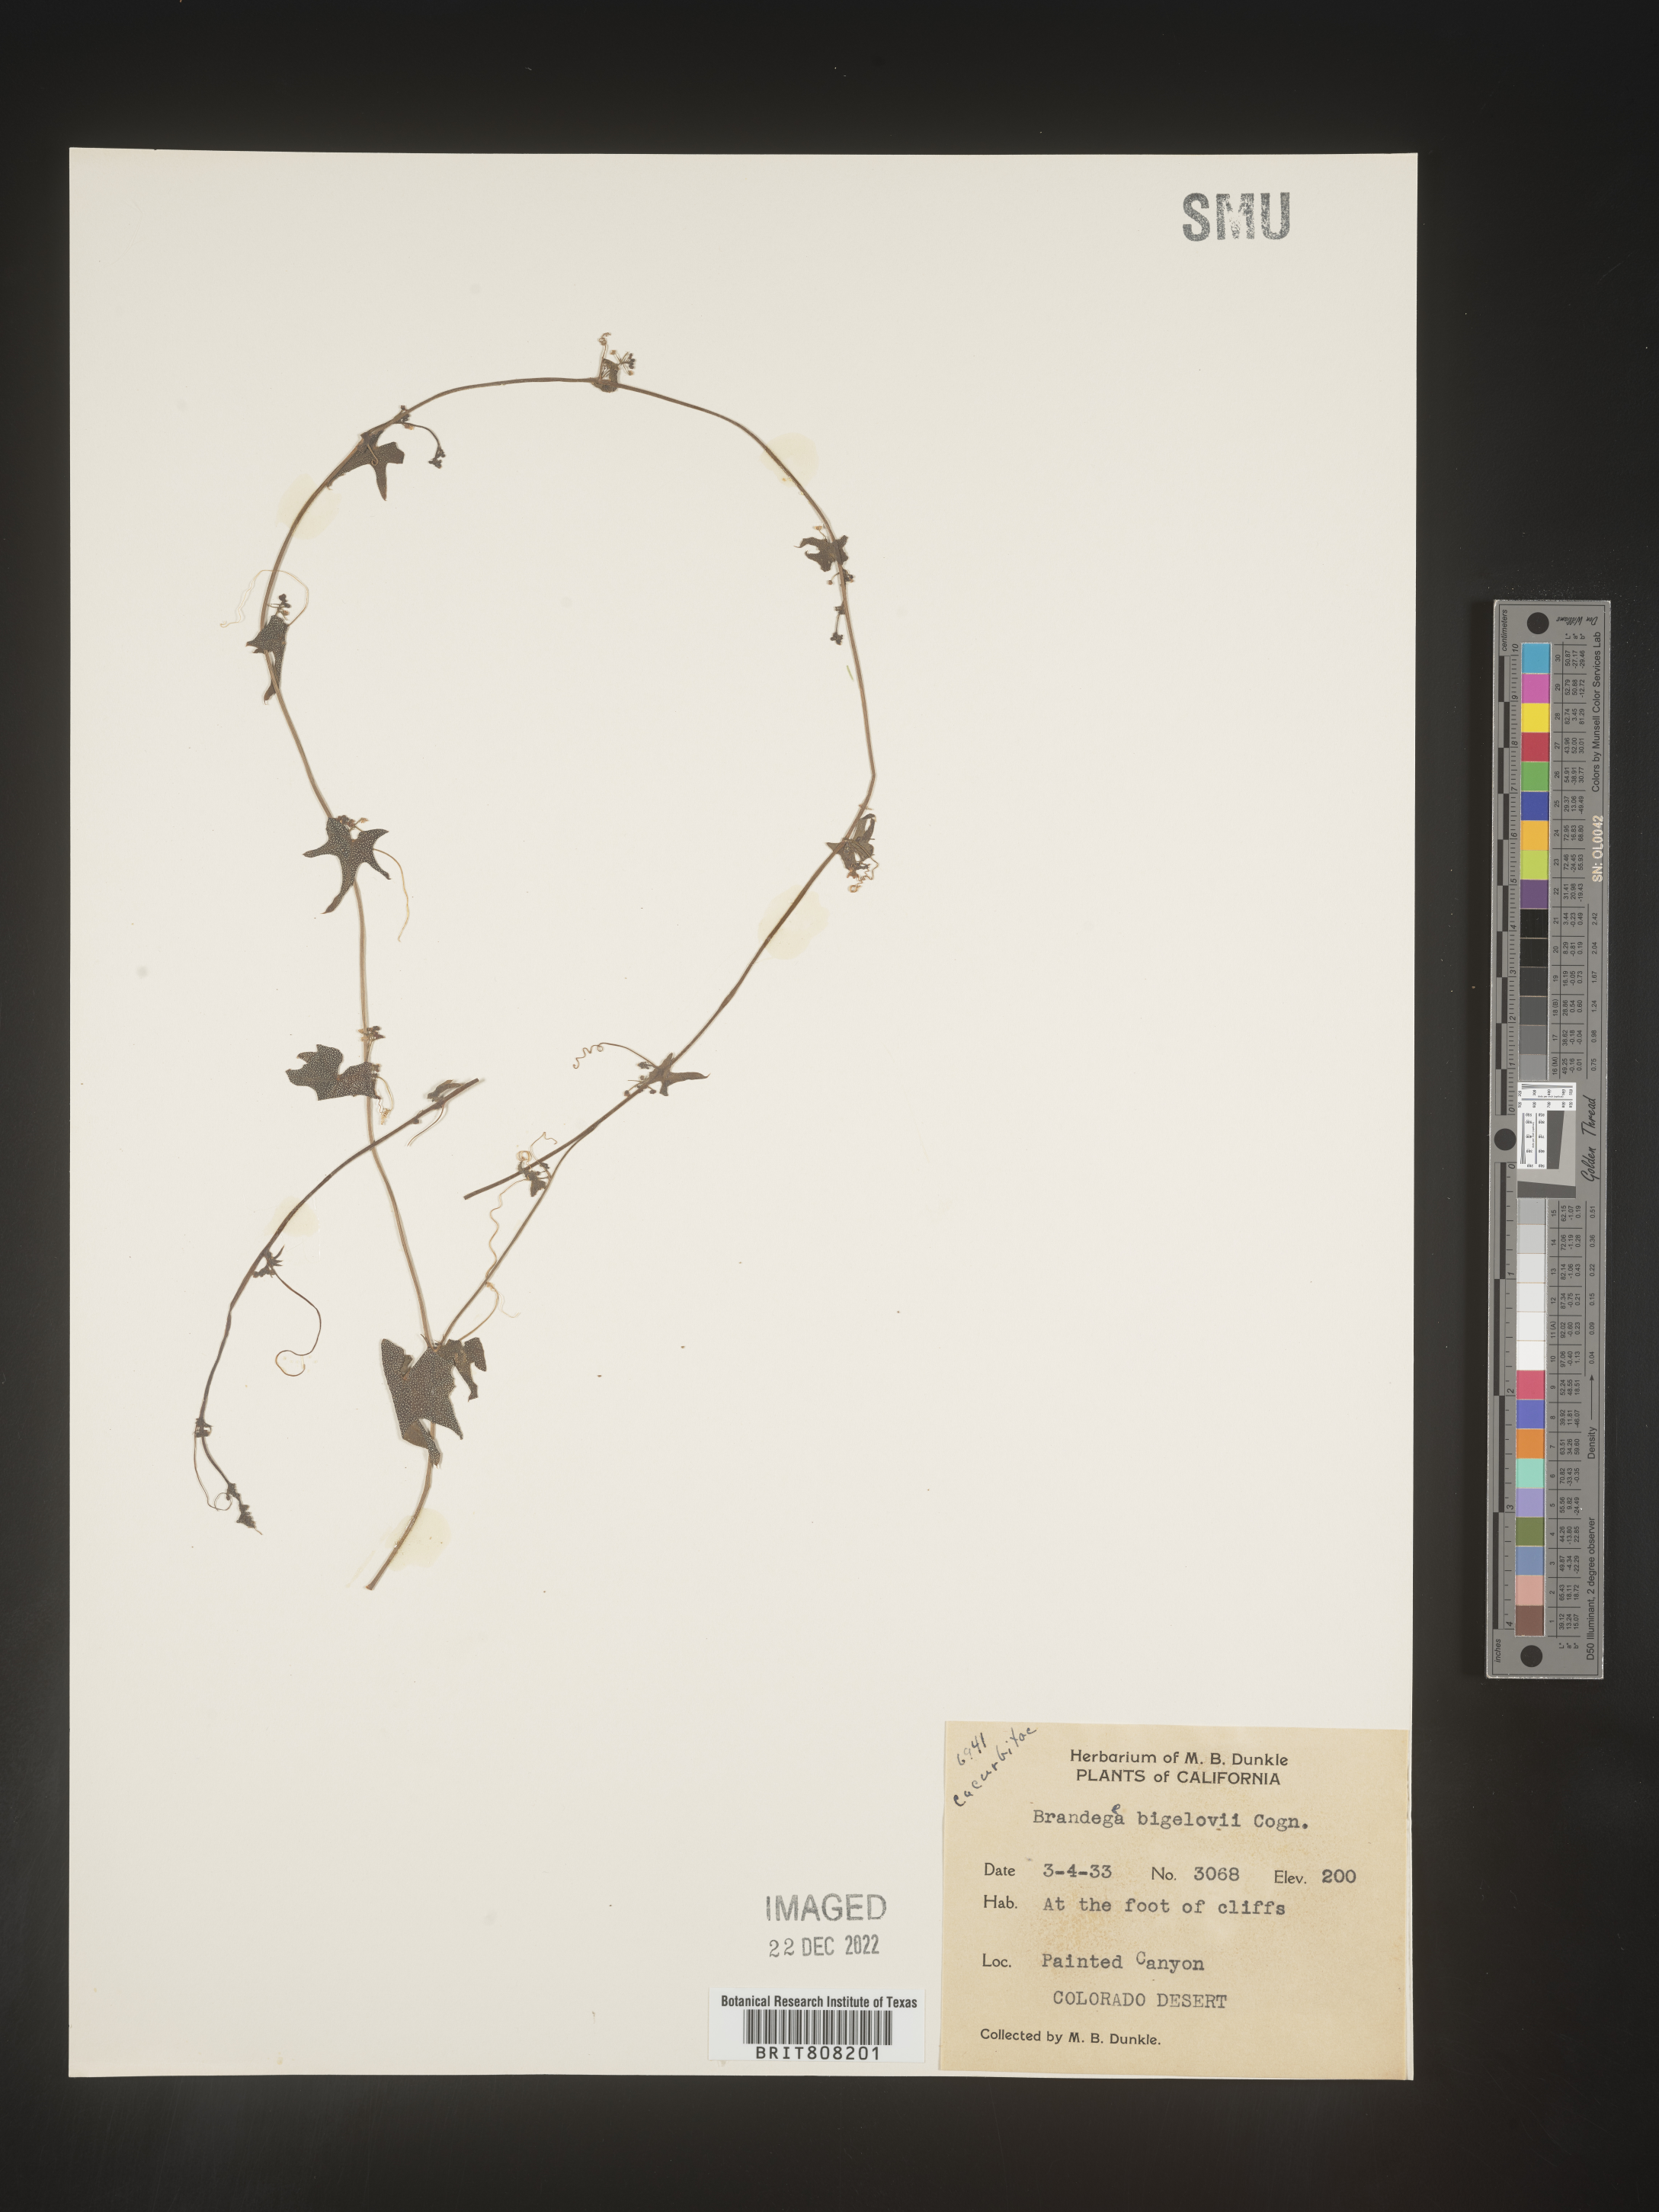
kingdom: Plantae
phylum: Tracheophyta
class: Magnoliopsida
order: Cucurbitales
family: Cucurbitaceae
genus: Brandegea
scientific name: Brandegea
